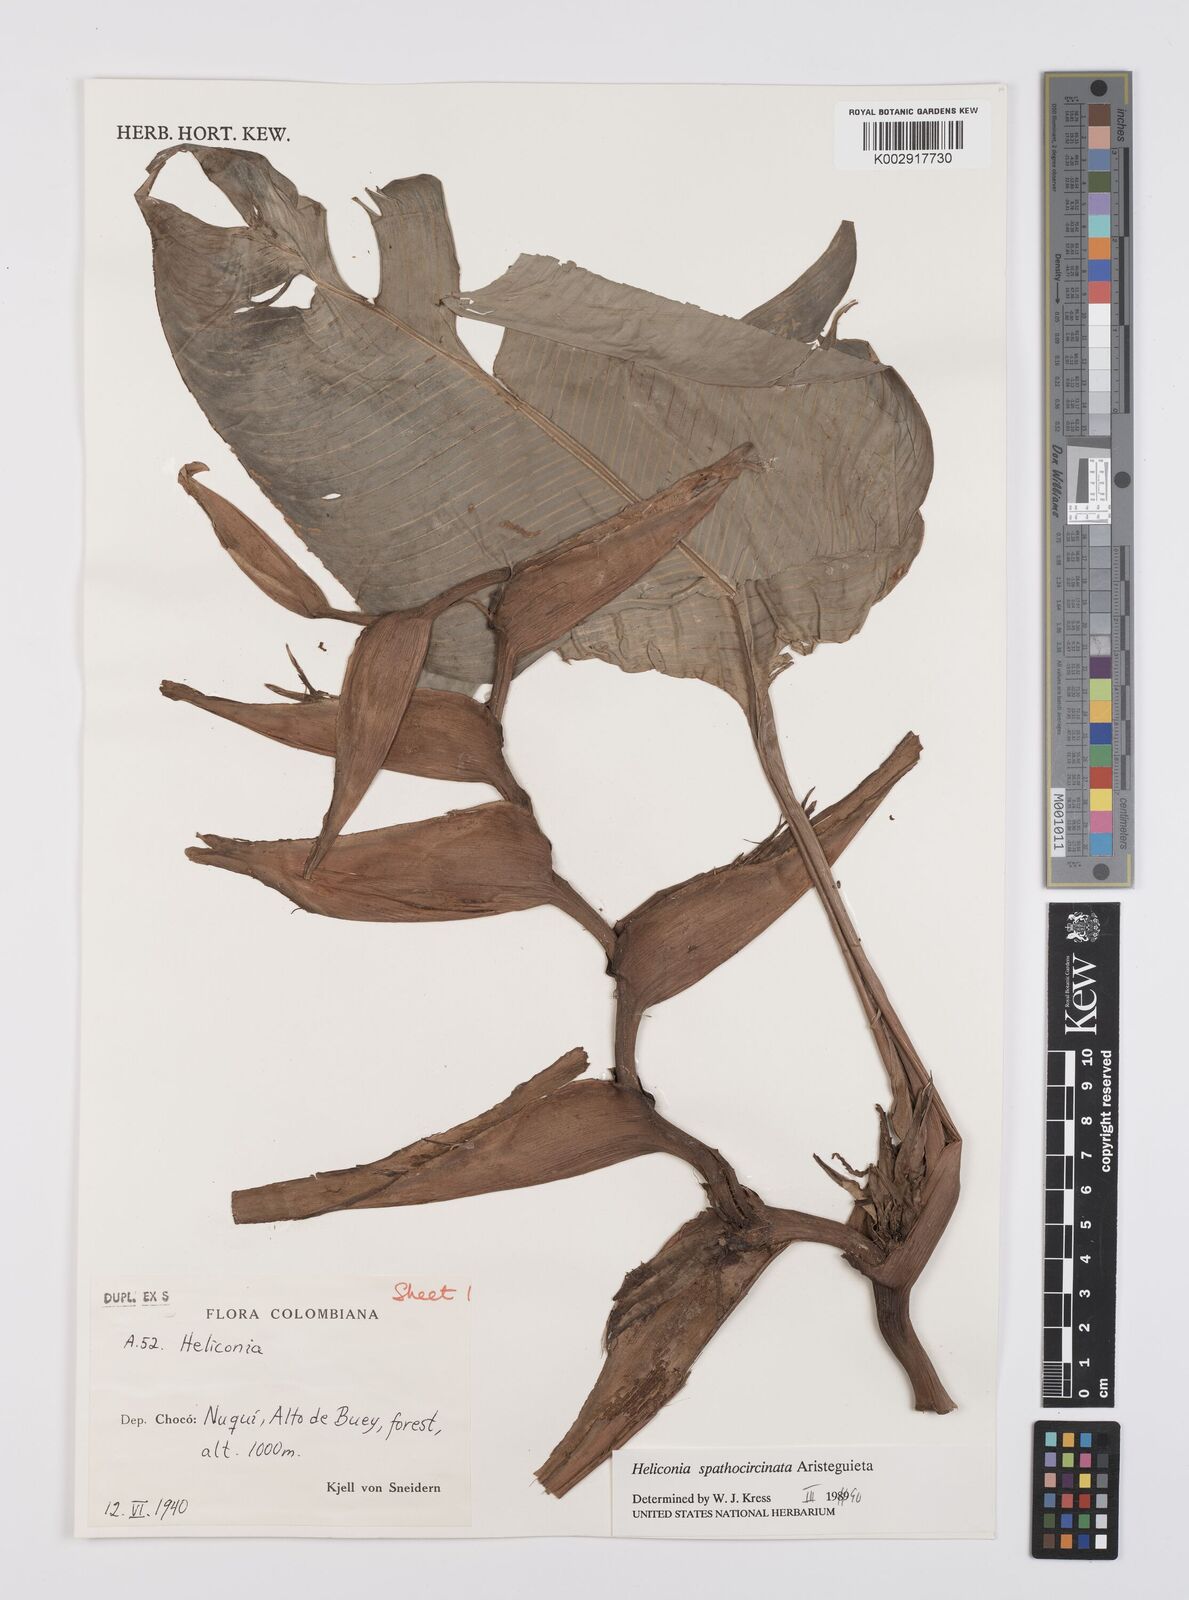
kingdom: Plantae
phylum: Tracheophyta
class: Liliopsida
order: Zingiberales
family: Heliconiaceae
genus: Heliconia
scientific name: Heliconia spathocircinata
